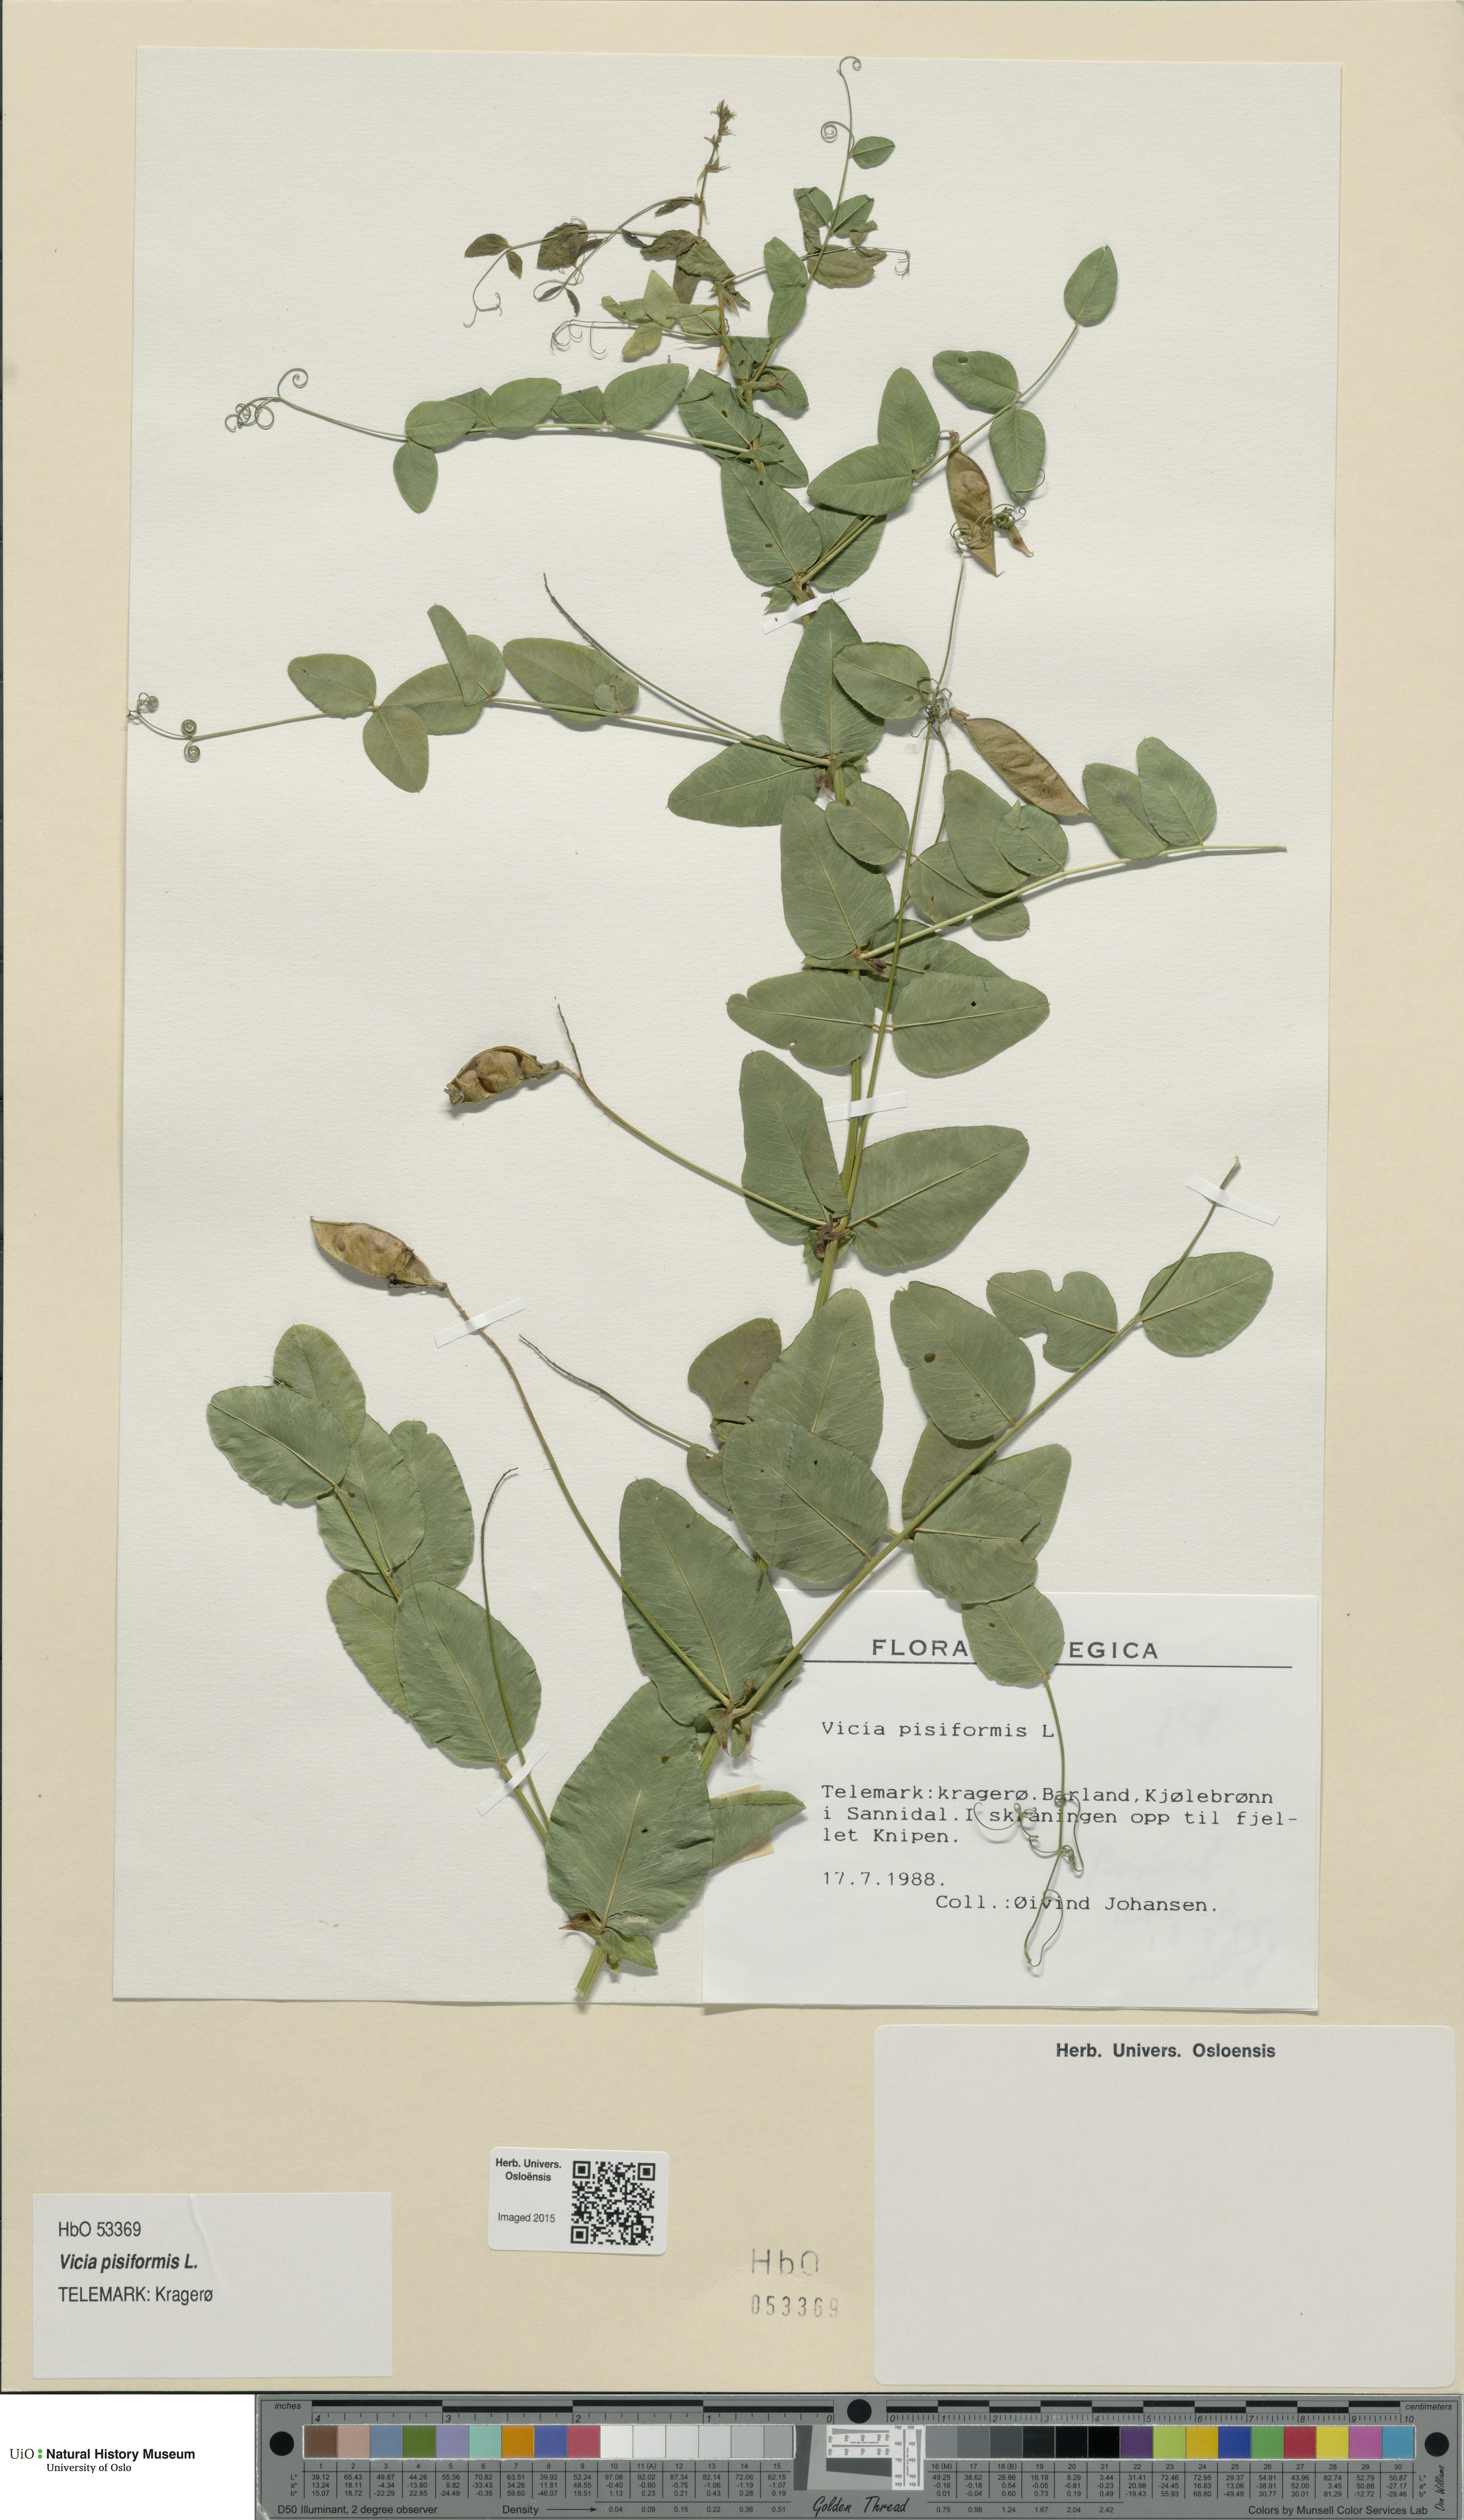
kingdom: Plantae
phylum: Tracheophyta
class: Magnoliopsida
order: Fabales
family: Fabaceae
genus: Vicia
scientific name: Vicia pisiformis
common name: Pale-flower vetch
